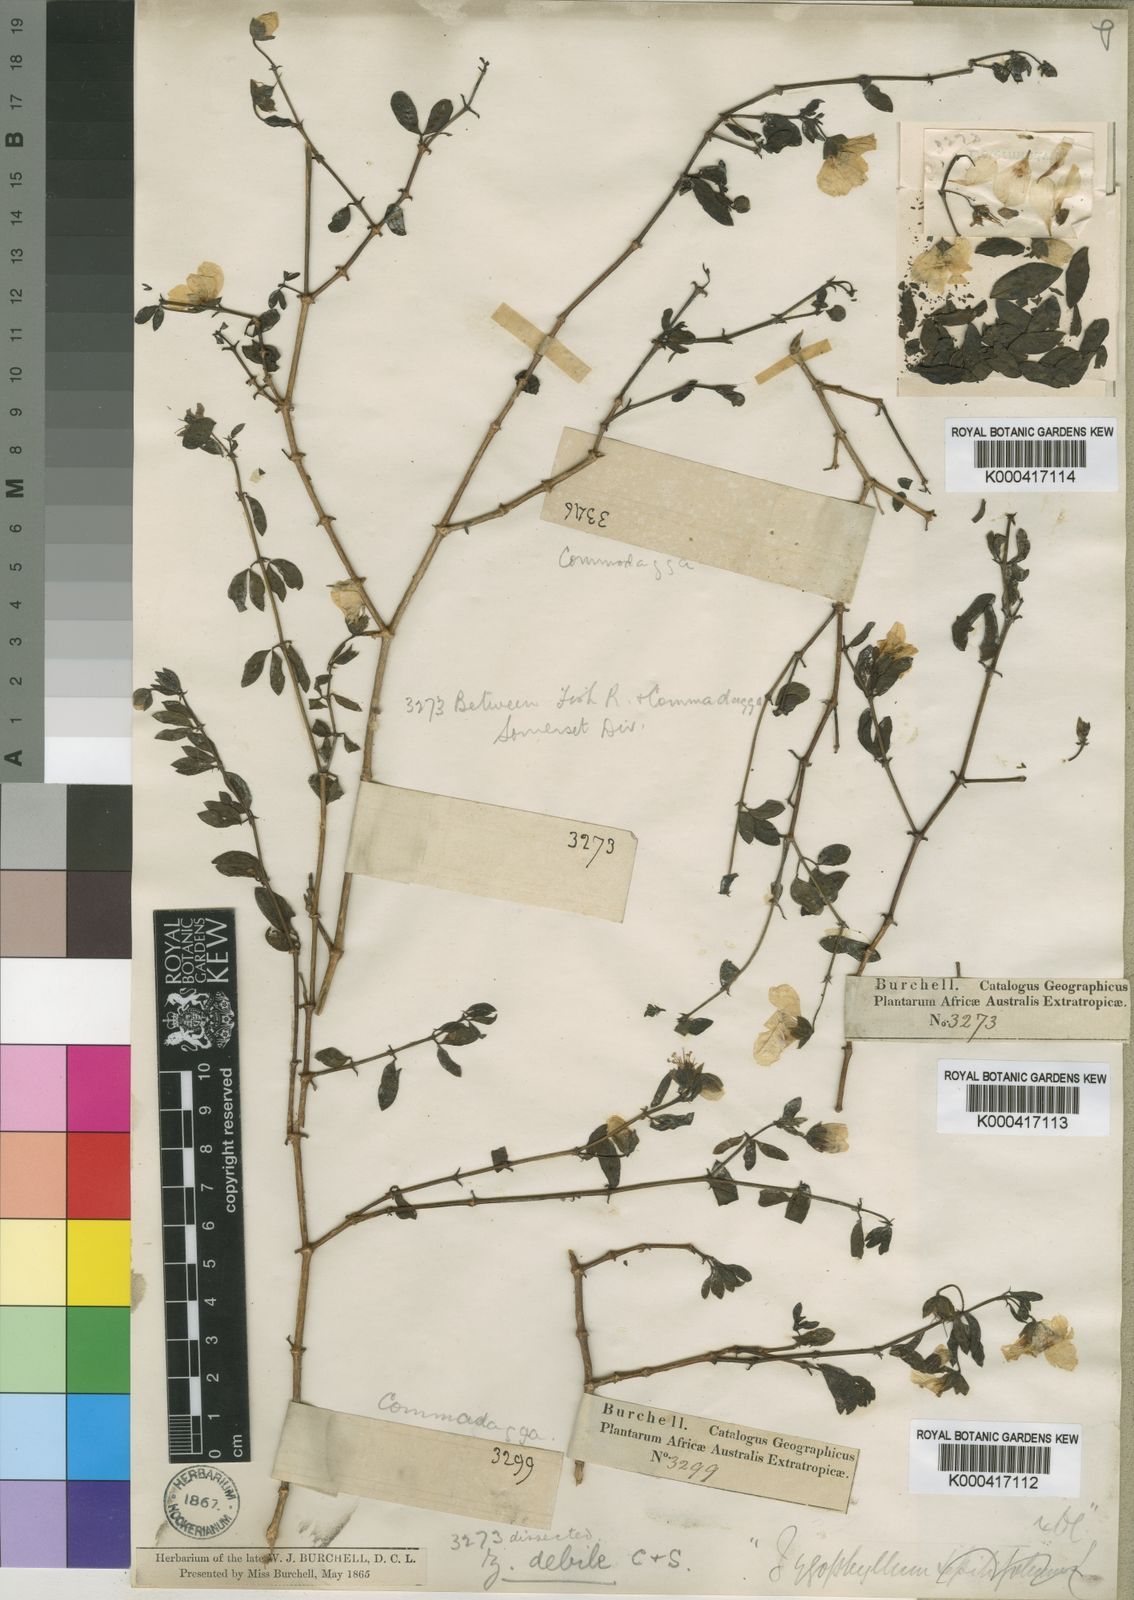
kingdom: Plantae
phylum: Tracheophyta
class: Magnoliopsida
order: Zygophyllales
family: Zygophyllaceae
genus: Roepera
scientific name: Roepera debilis
